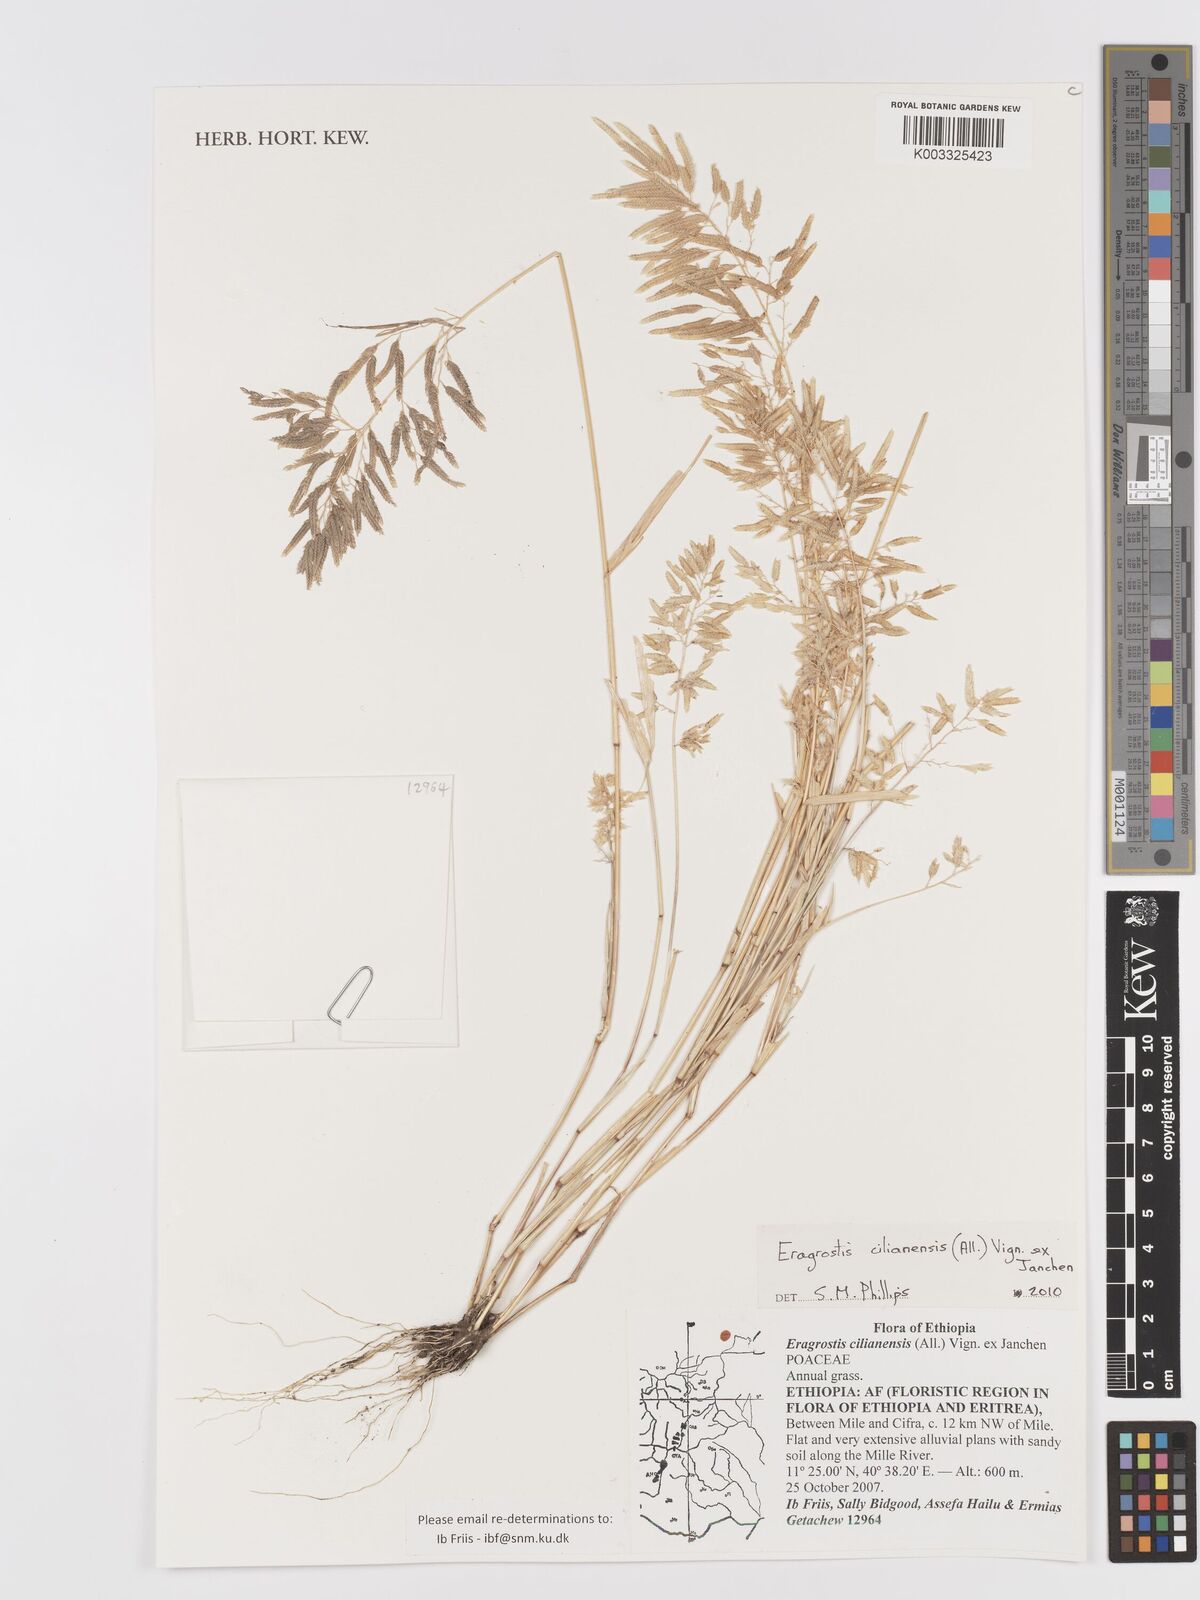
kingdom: Plantae
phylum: Tracheophyta
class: Liliopsida
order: Poales
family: Poaceae
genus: Eragrostis
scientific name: Eragrostis cilianensis
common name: Stinkgrass
